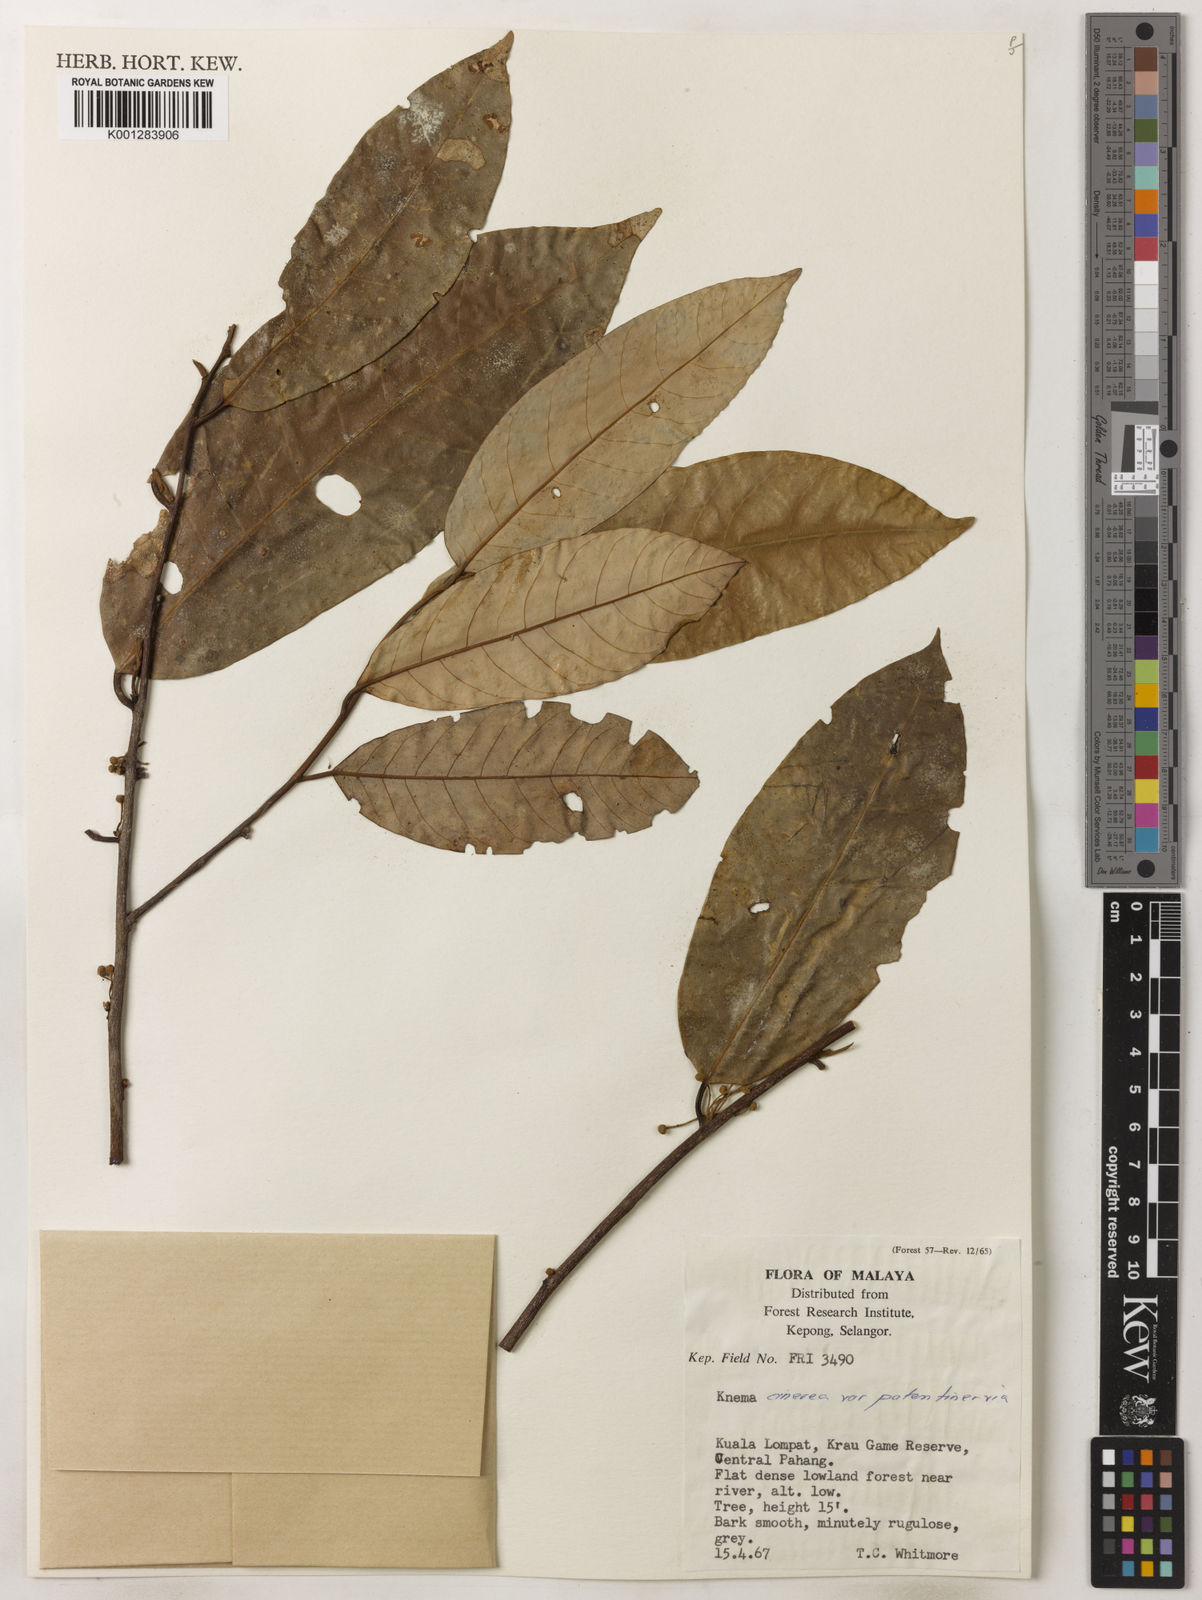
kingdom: Plantae
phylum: Tracheophyta
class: Magnoliopsida
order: Magnoliales
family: Myristicaceae
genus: Knema
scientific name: Knema
